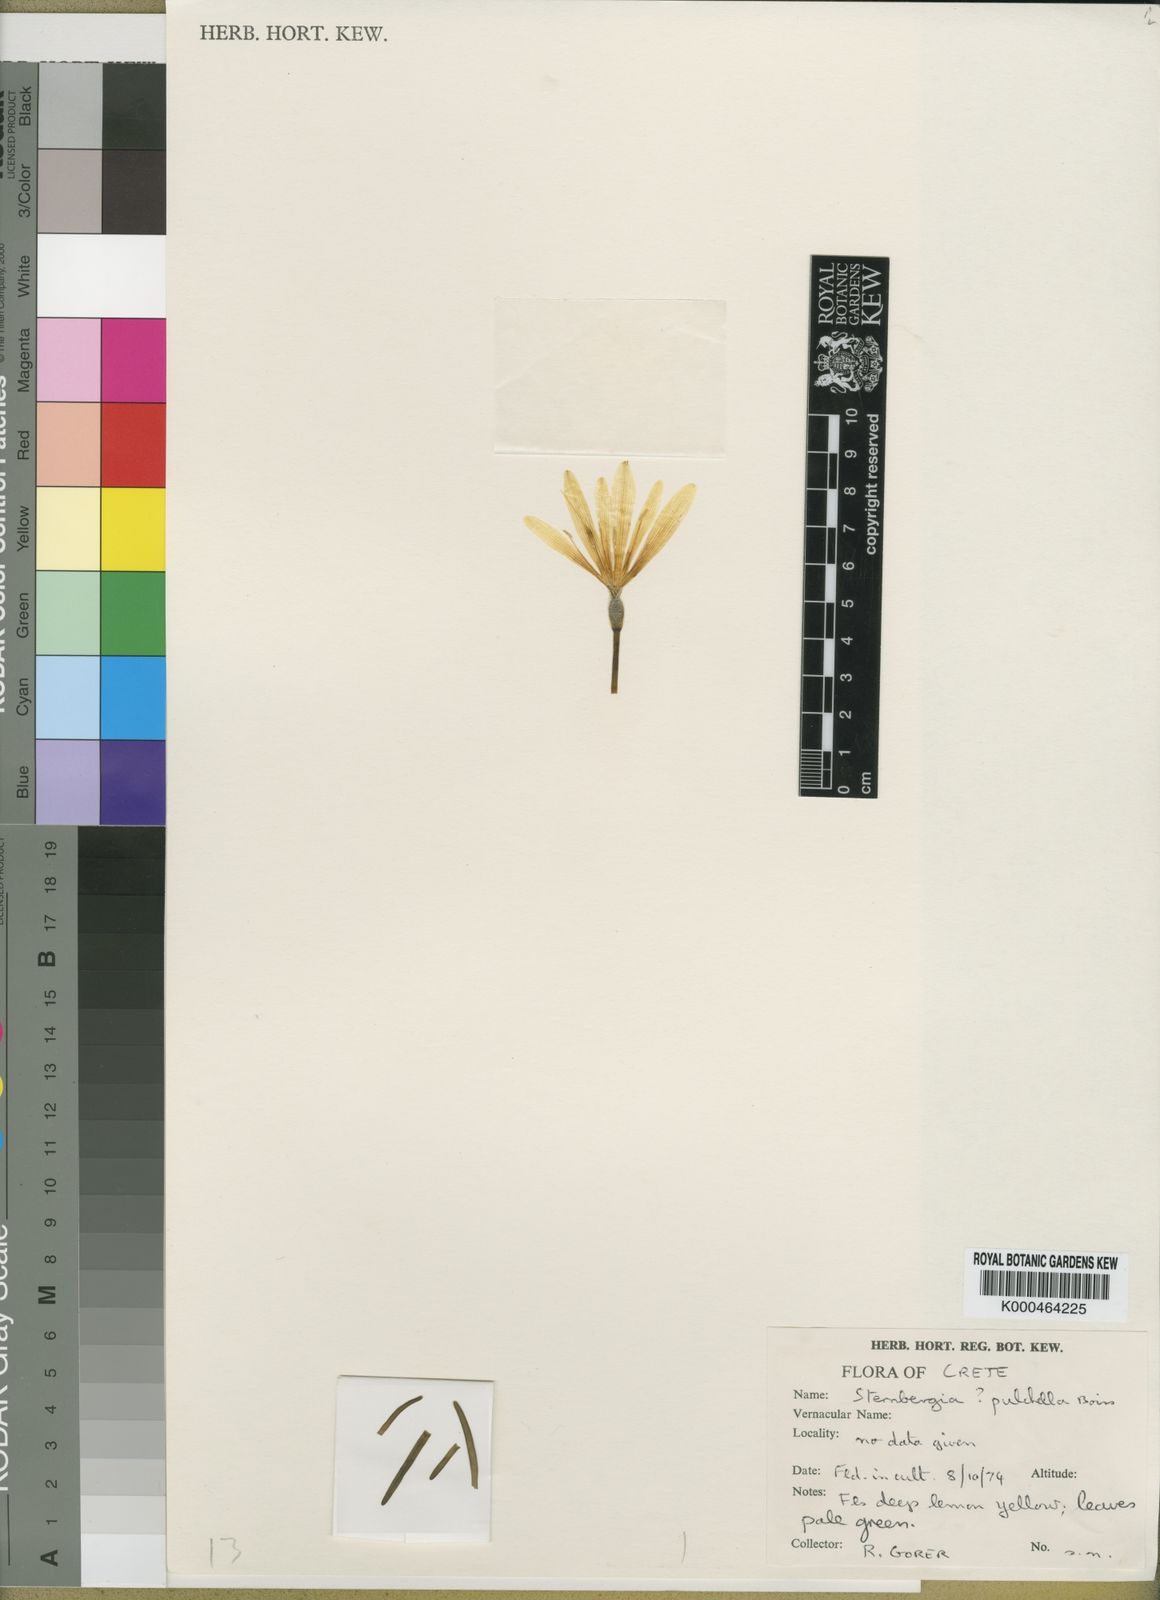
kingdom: Plantae
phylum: Tracheophyta
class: Liliopsida
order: Asparagales
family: Amaryllidaceae
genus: Sternbergia
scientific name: Sternbergia
